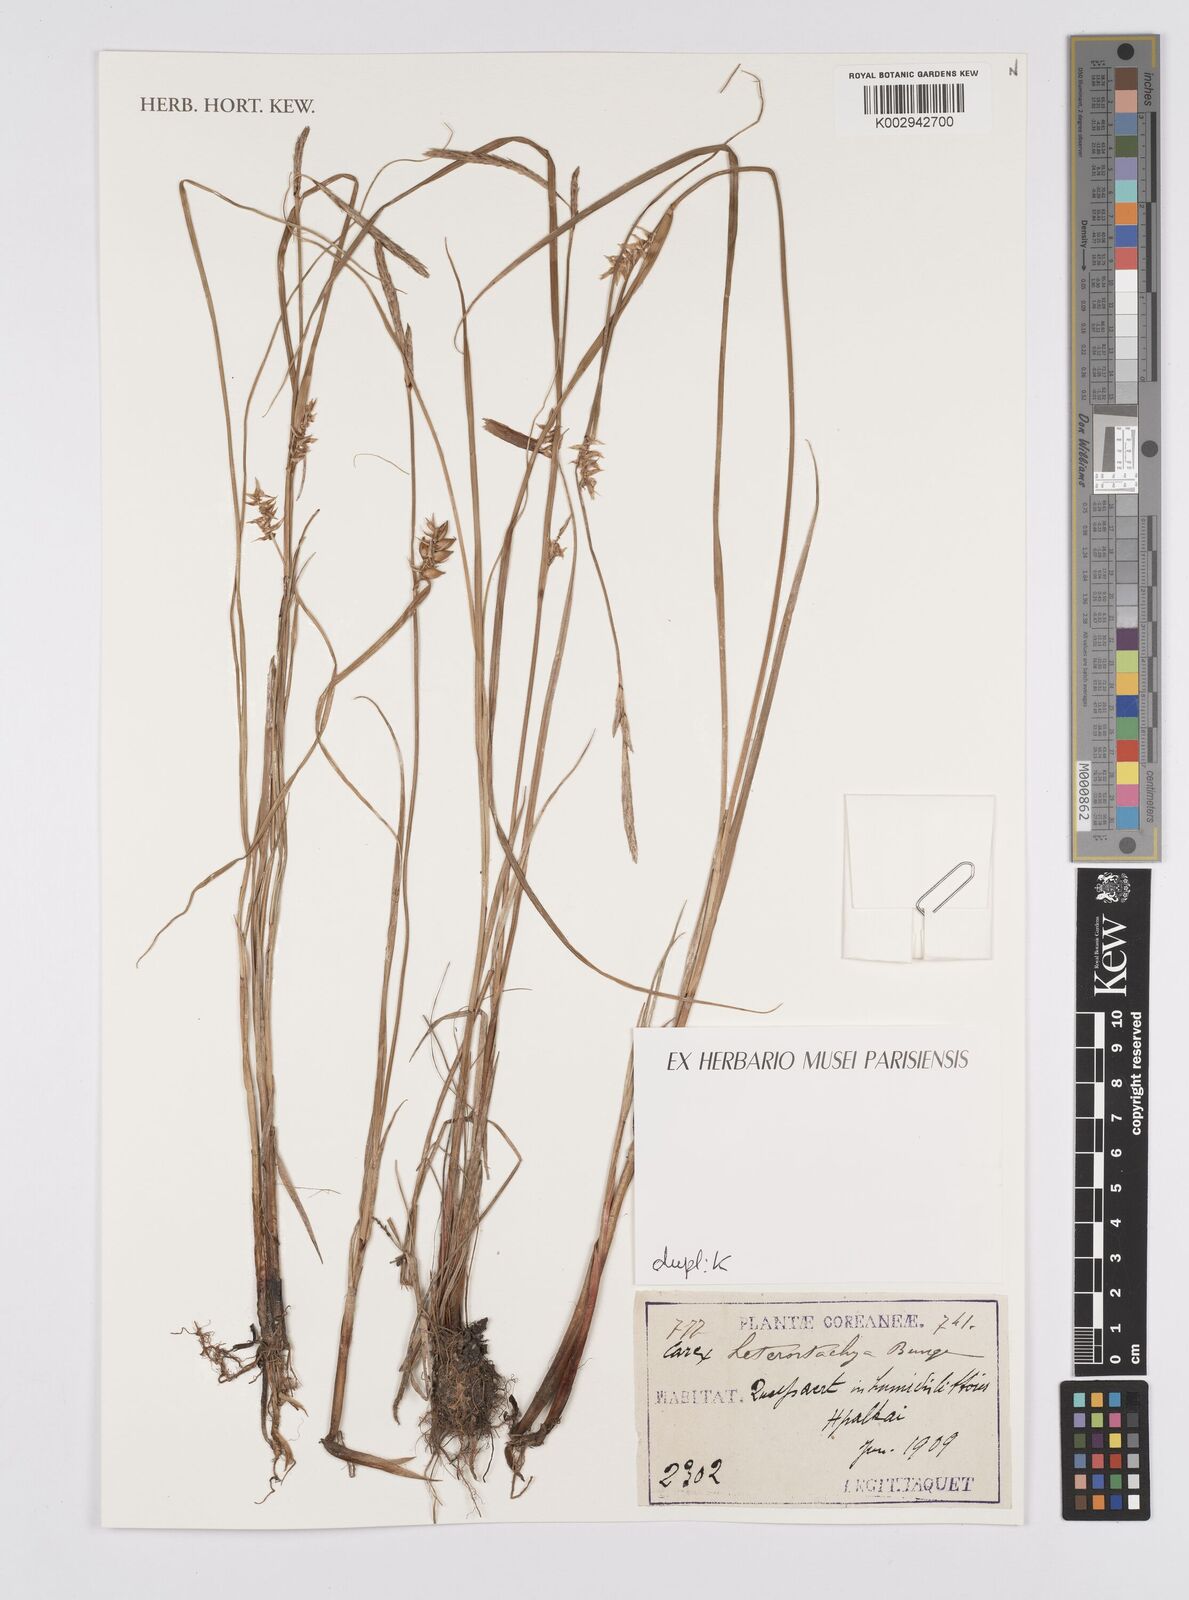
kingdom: Plantae
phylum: Tracheophyta
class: Liliopsida
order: Poales
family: Cyperaceae
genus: Carex
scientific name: Carex heterostachya
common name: Different-spike sedge
